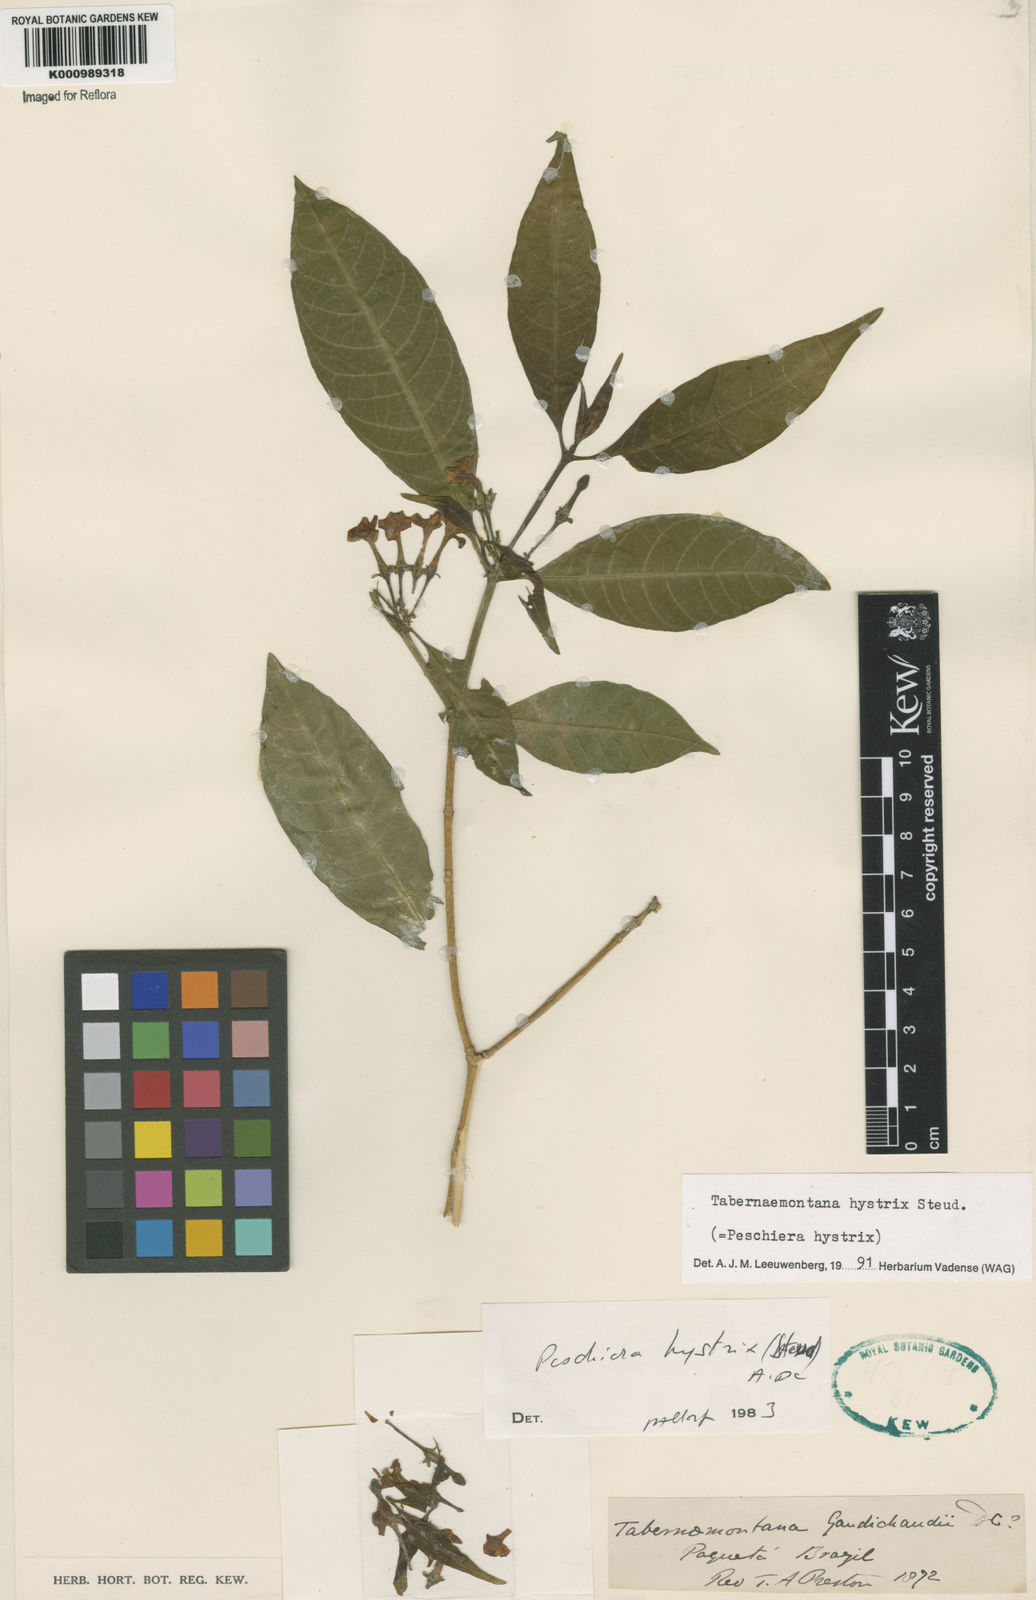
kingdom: Plantae
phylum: Tracheophyta
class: Magnoliopsida
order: Gentianales
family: Apocynaceae
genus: Tabernaemontana
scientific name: Tabernaemontana hystrix
